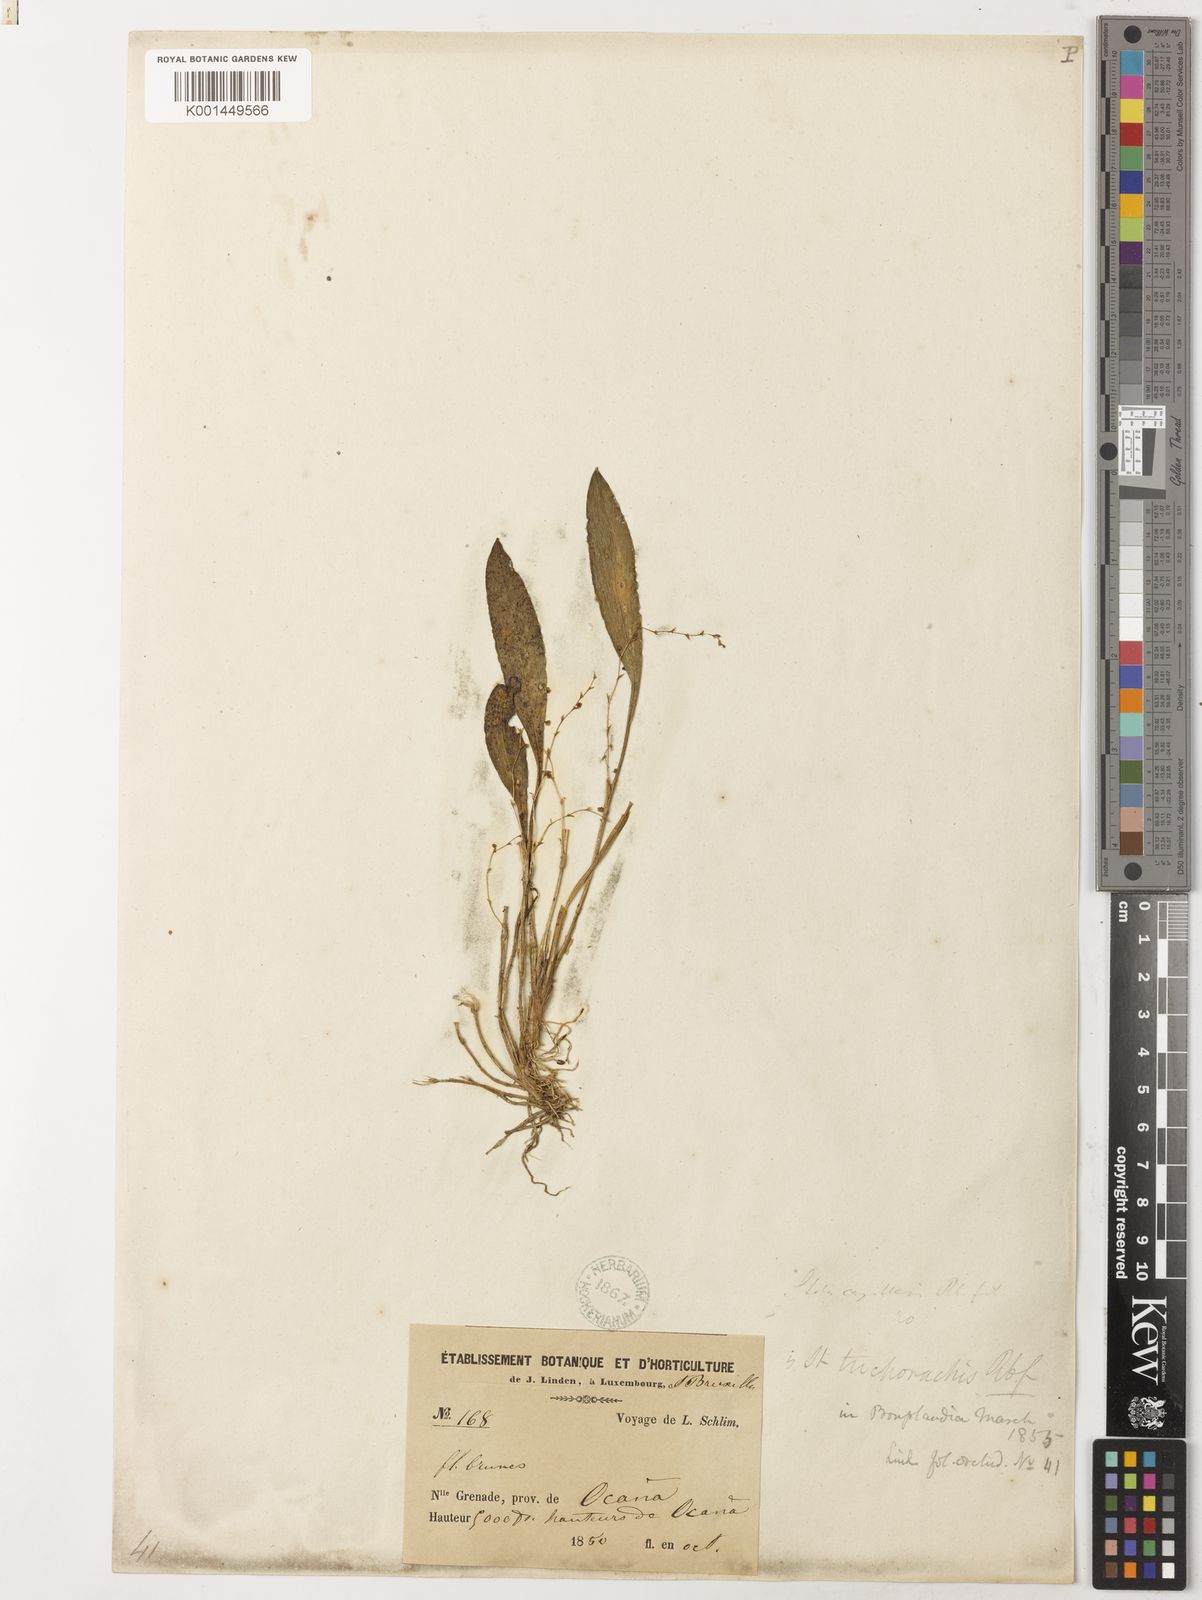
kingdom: Plantae
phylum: Tracheophyta
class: Liliopsida
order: Asparagales
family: Orchidaceae
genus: Stelis
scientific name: Stelis trichorrhachis
